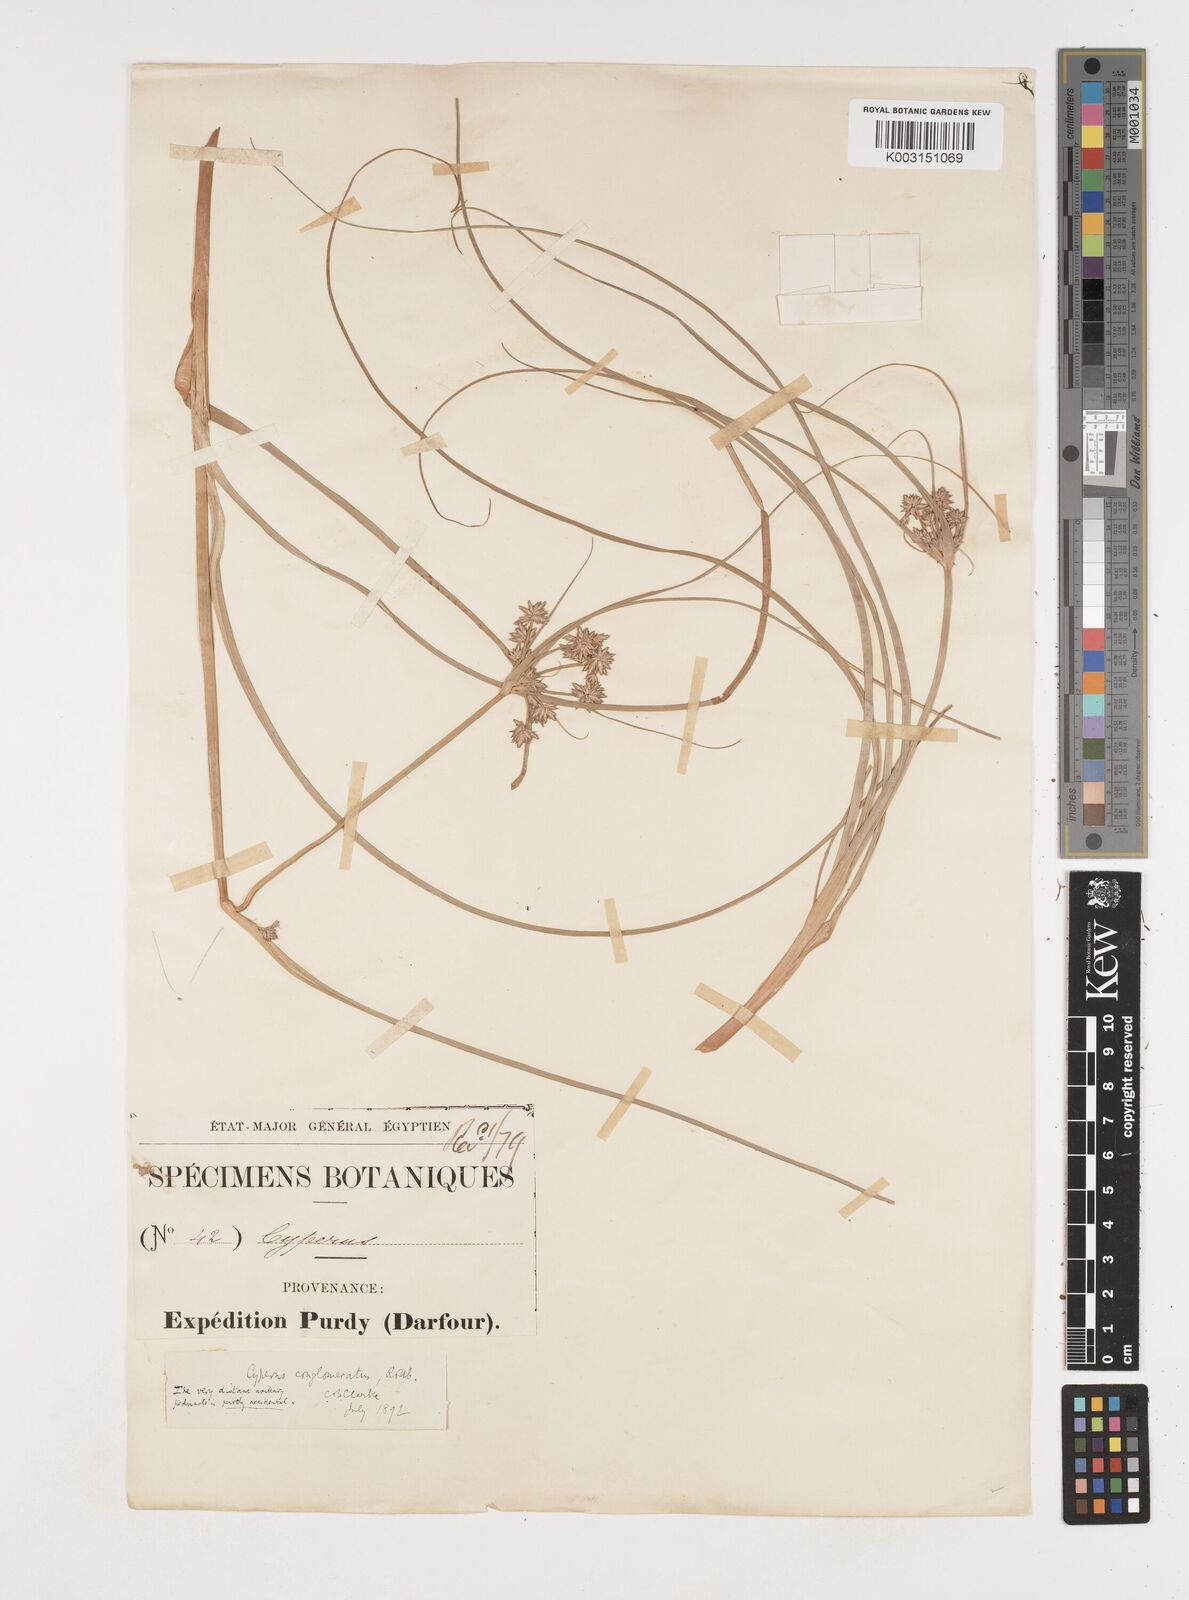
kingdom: Plantae
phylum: Tracheophyta
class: Liliopsida
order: Poales
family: Cyperaceae
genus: Cyperus
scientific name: Cyperus jeminicus
